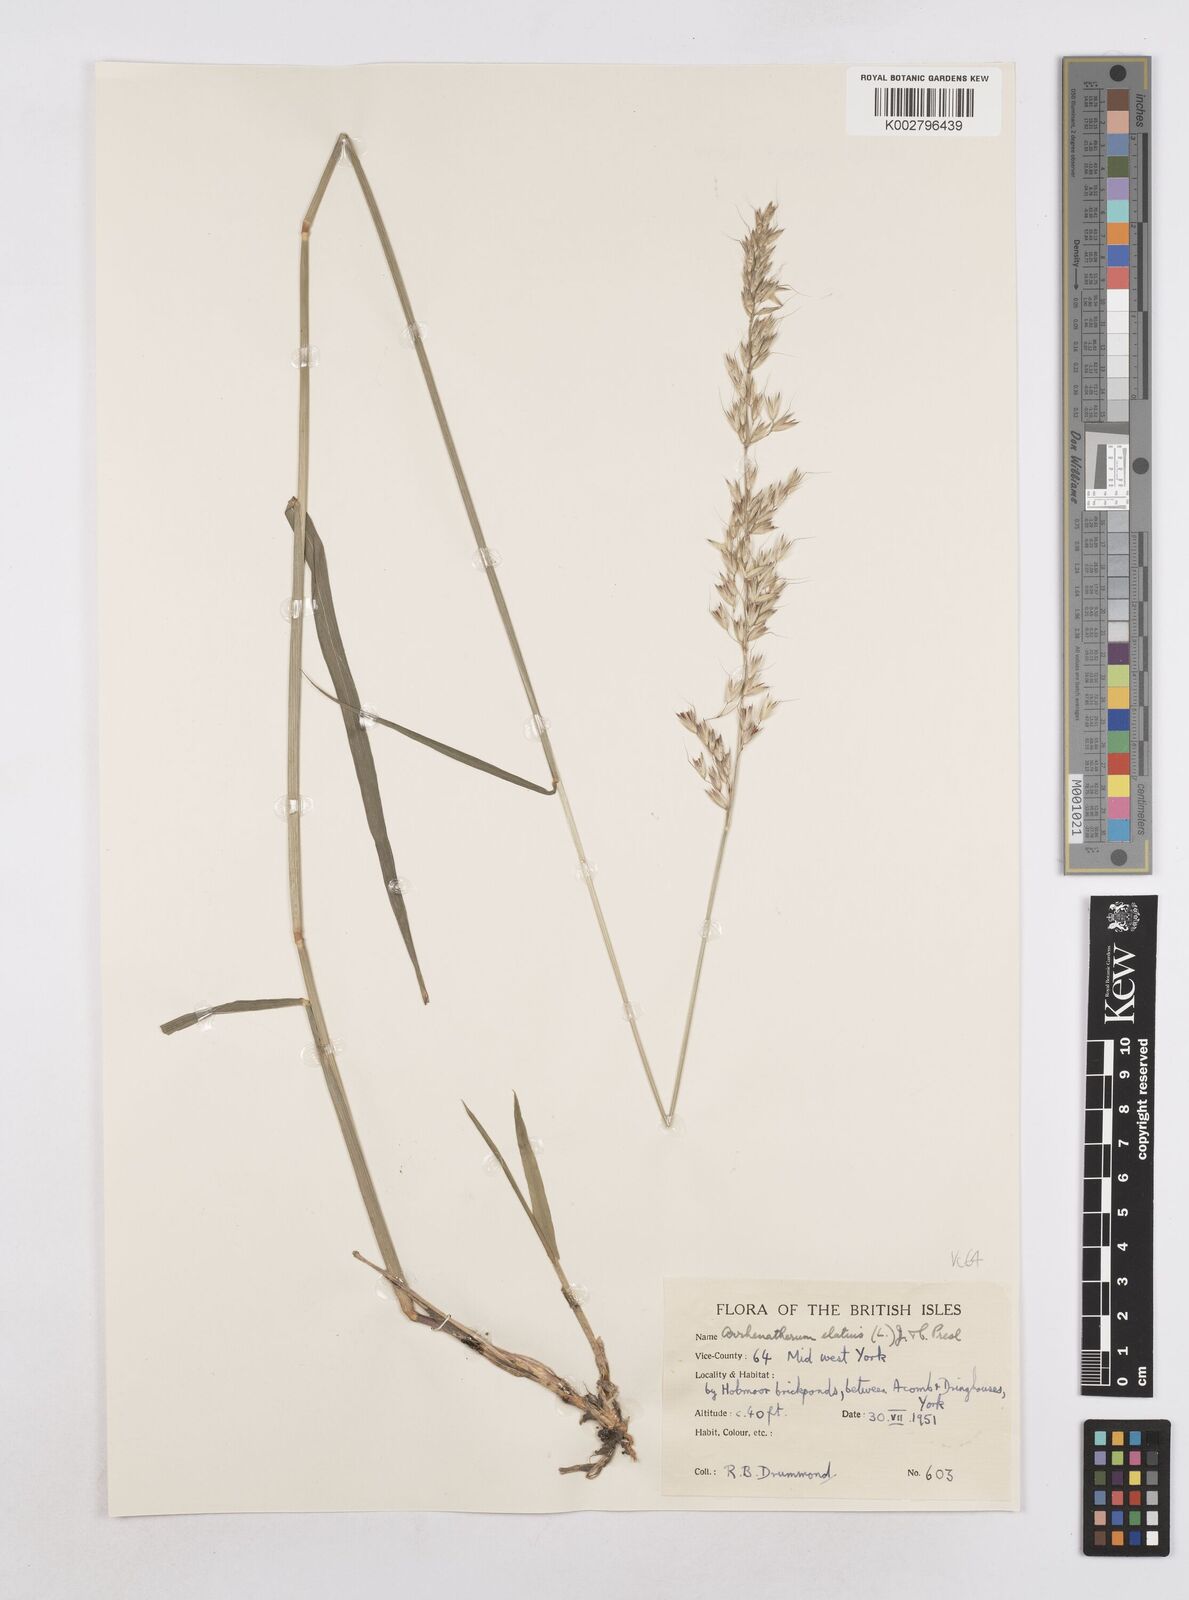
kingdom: Plantae
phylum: Tracheophyta
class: Liliopsida
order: Poales
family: Poaceae
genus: Arrhenatherum
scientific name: Arrhenatherum elatius
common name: Tall oatgrass
